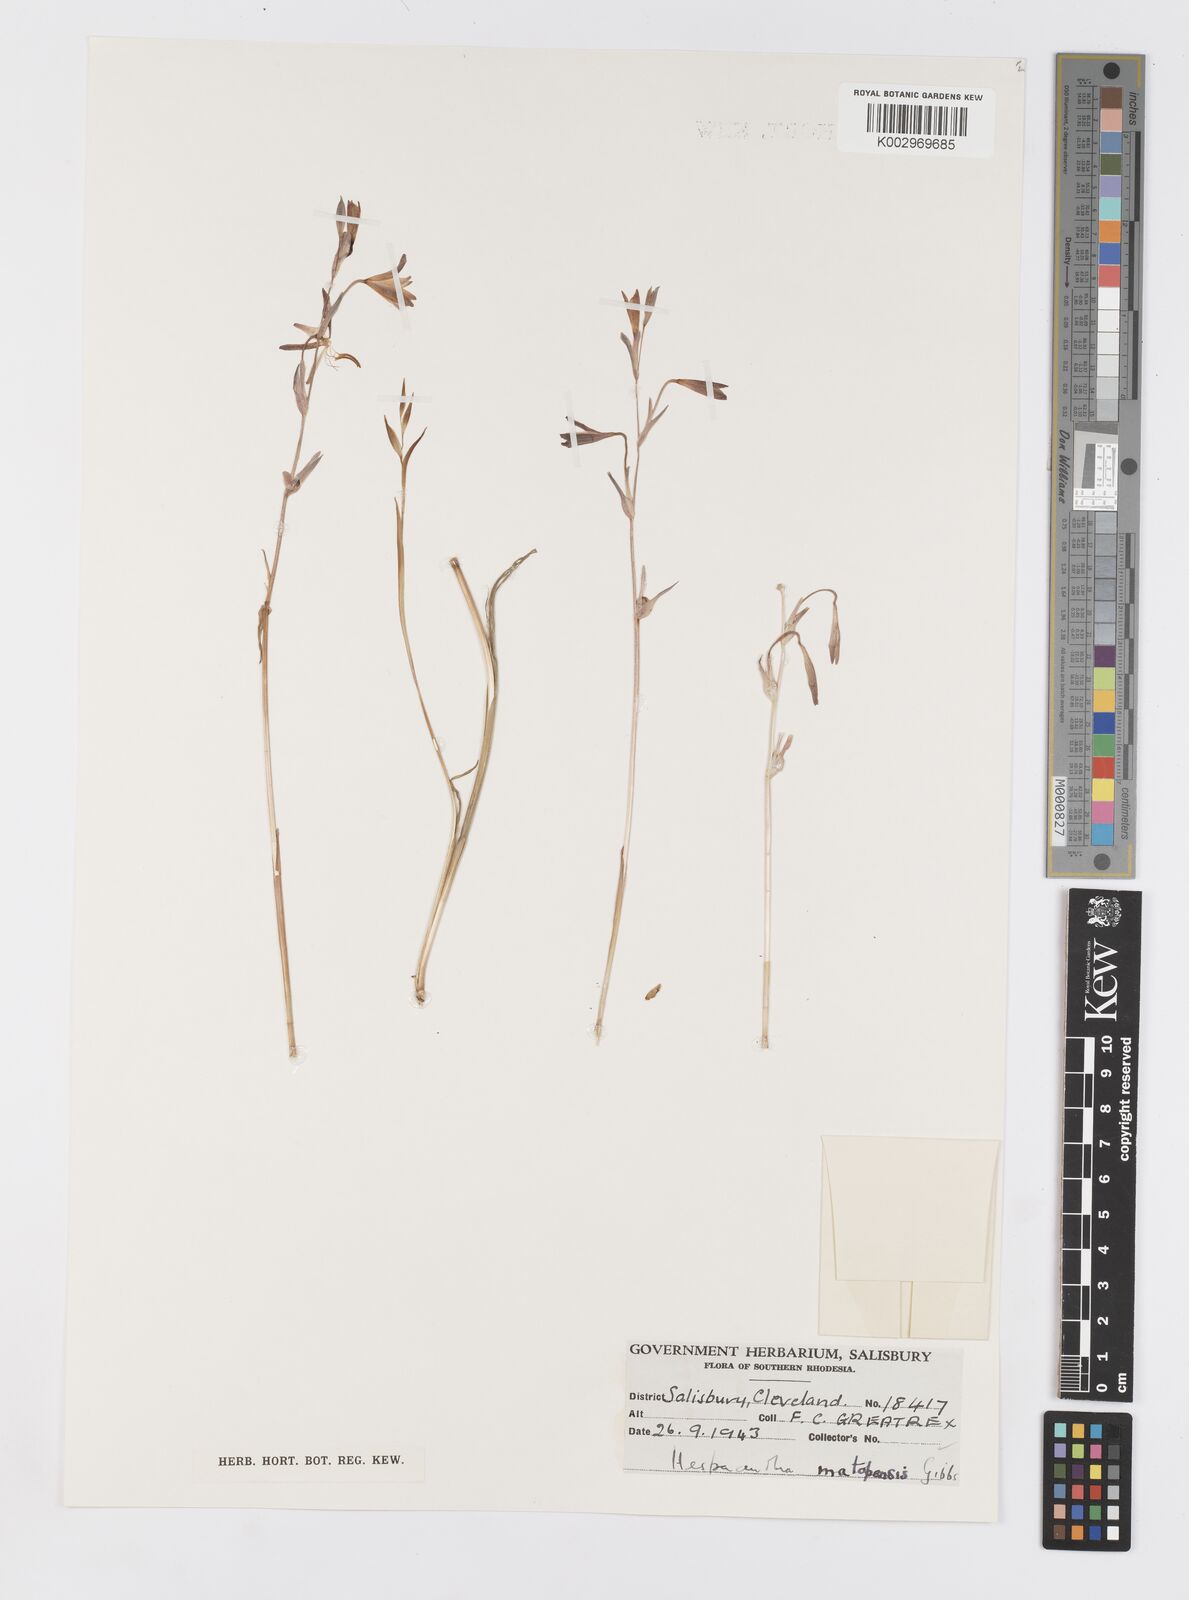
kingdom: Plantae
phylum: Tracheophyta
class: Liliopsida
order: Asparagales
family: Iridaceae
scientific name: Iridaceae
